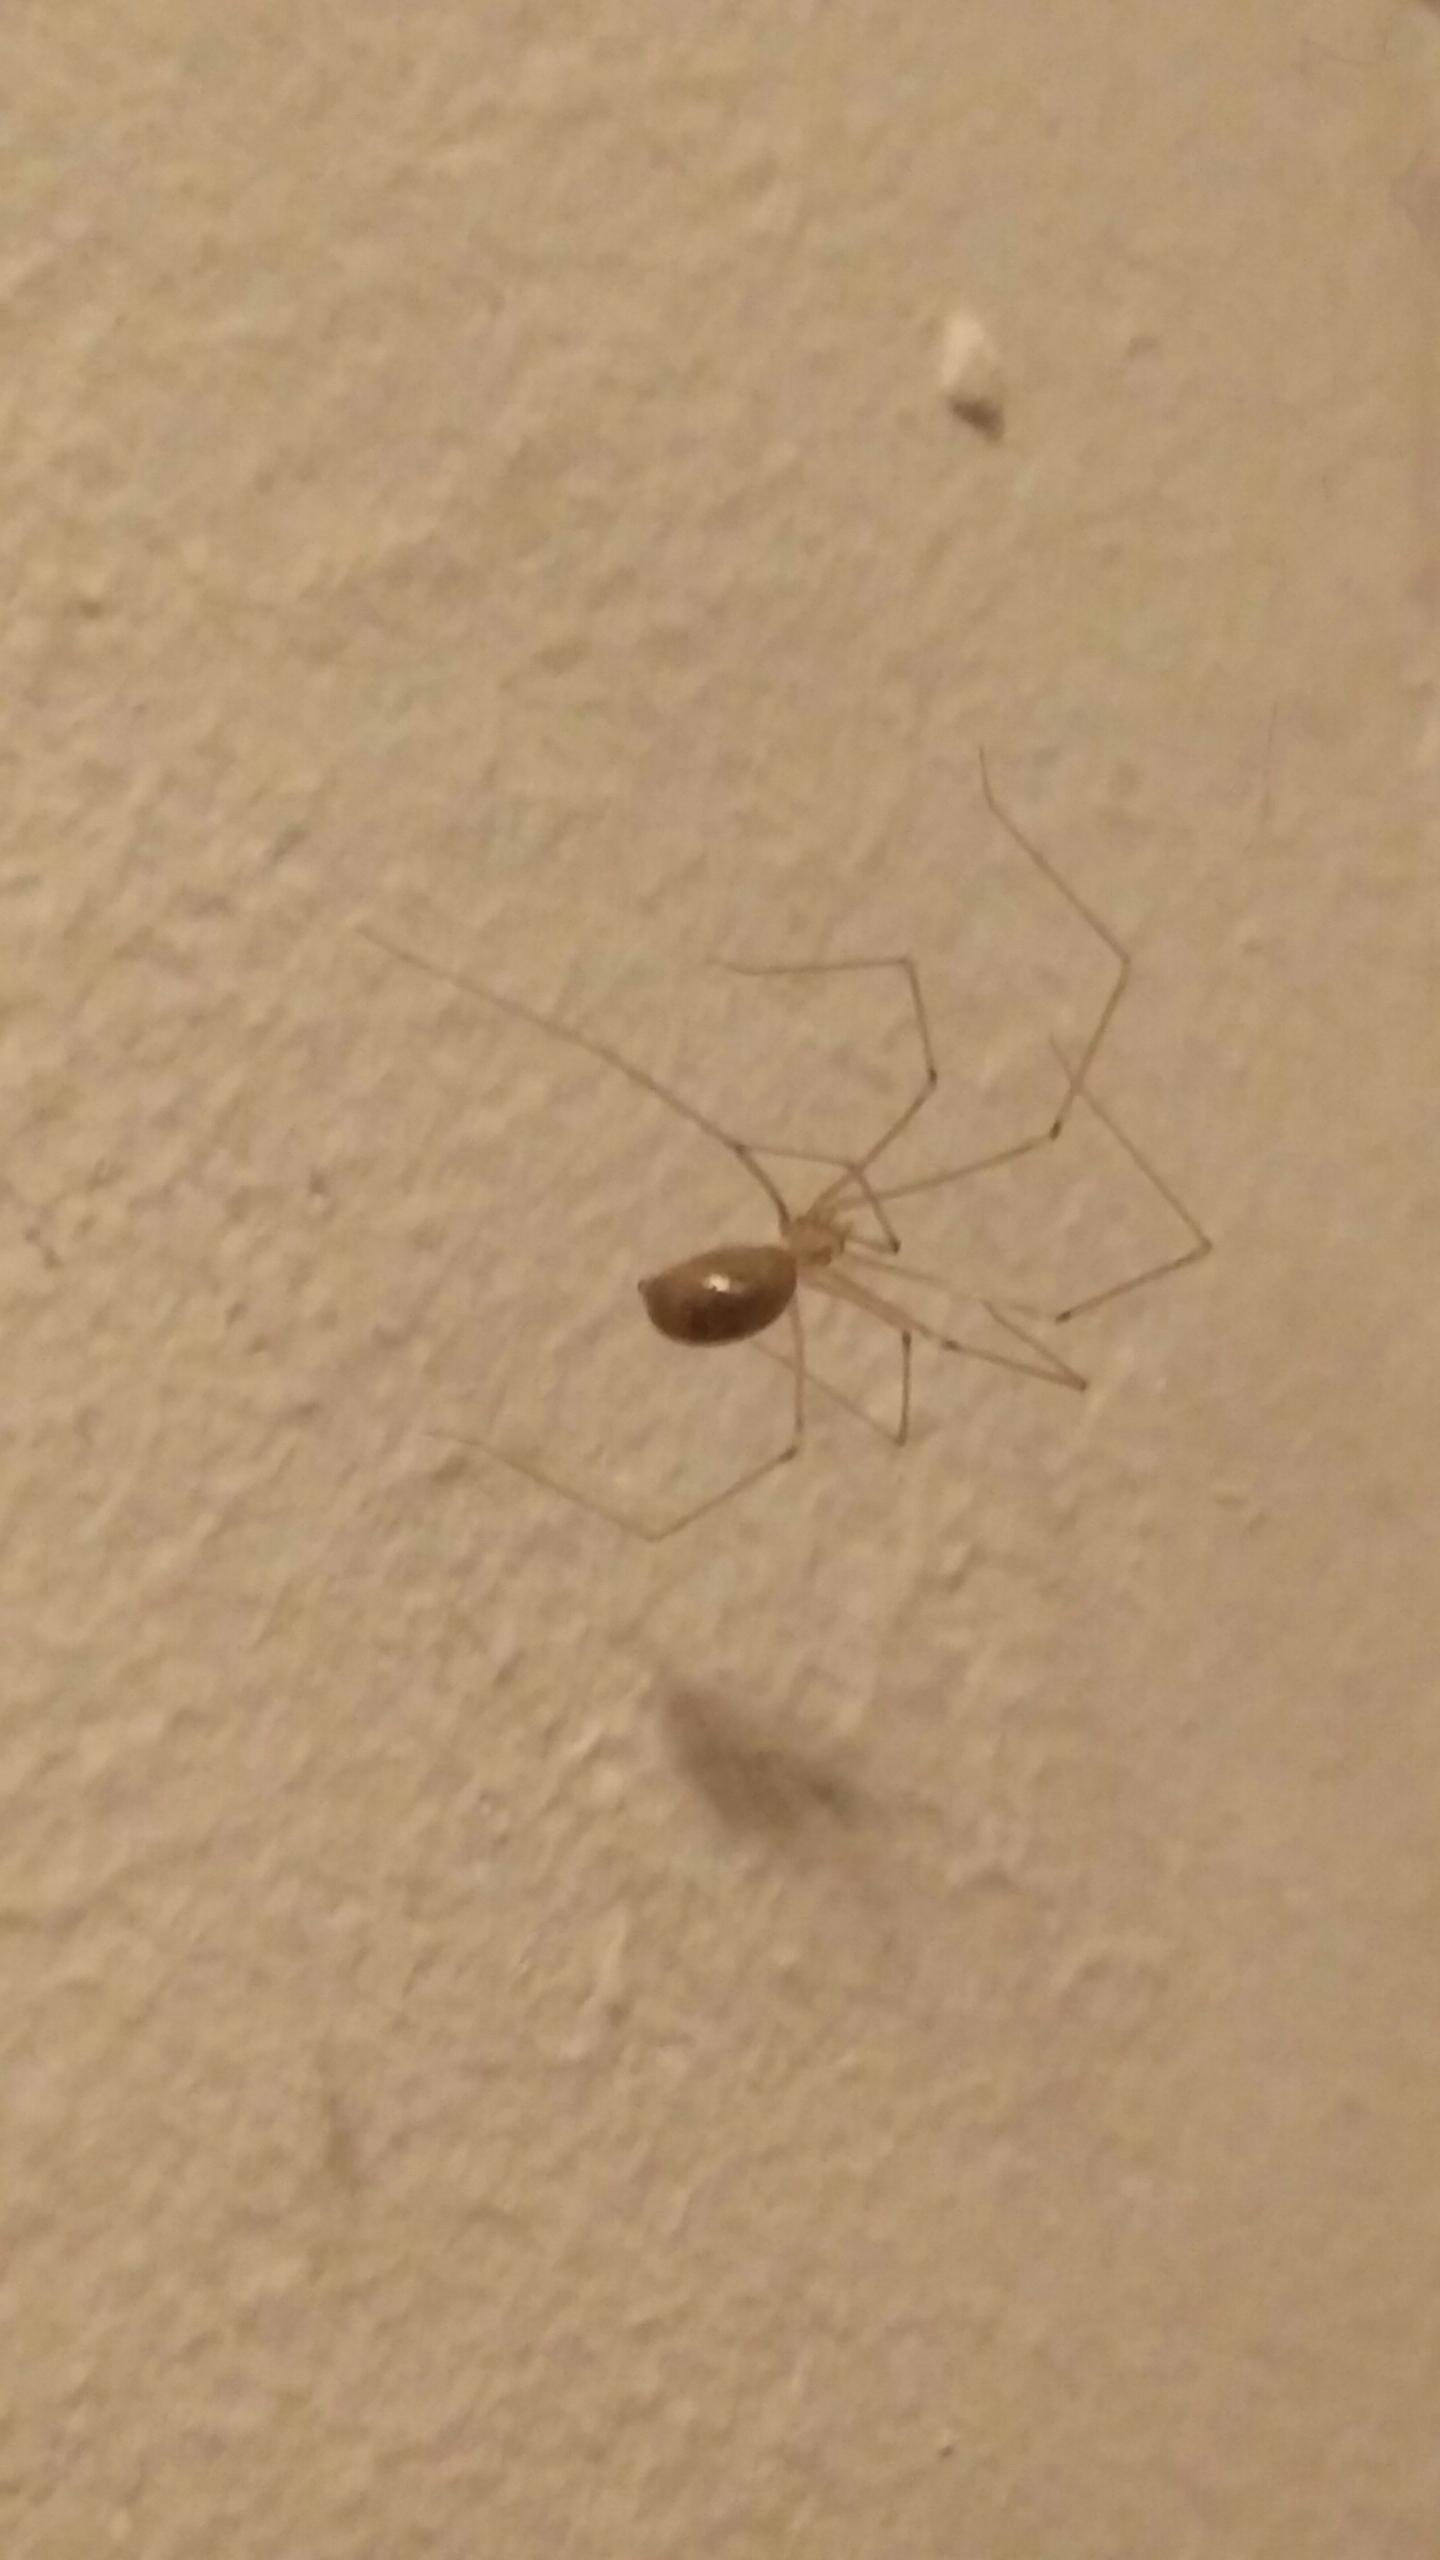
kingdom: Animalia
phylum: Arthropoda
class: Arachnida
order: Araneae
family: Pholcidae
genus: Pholcus
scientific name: Pholcus phalangioides
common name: Mejeredderkop
